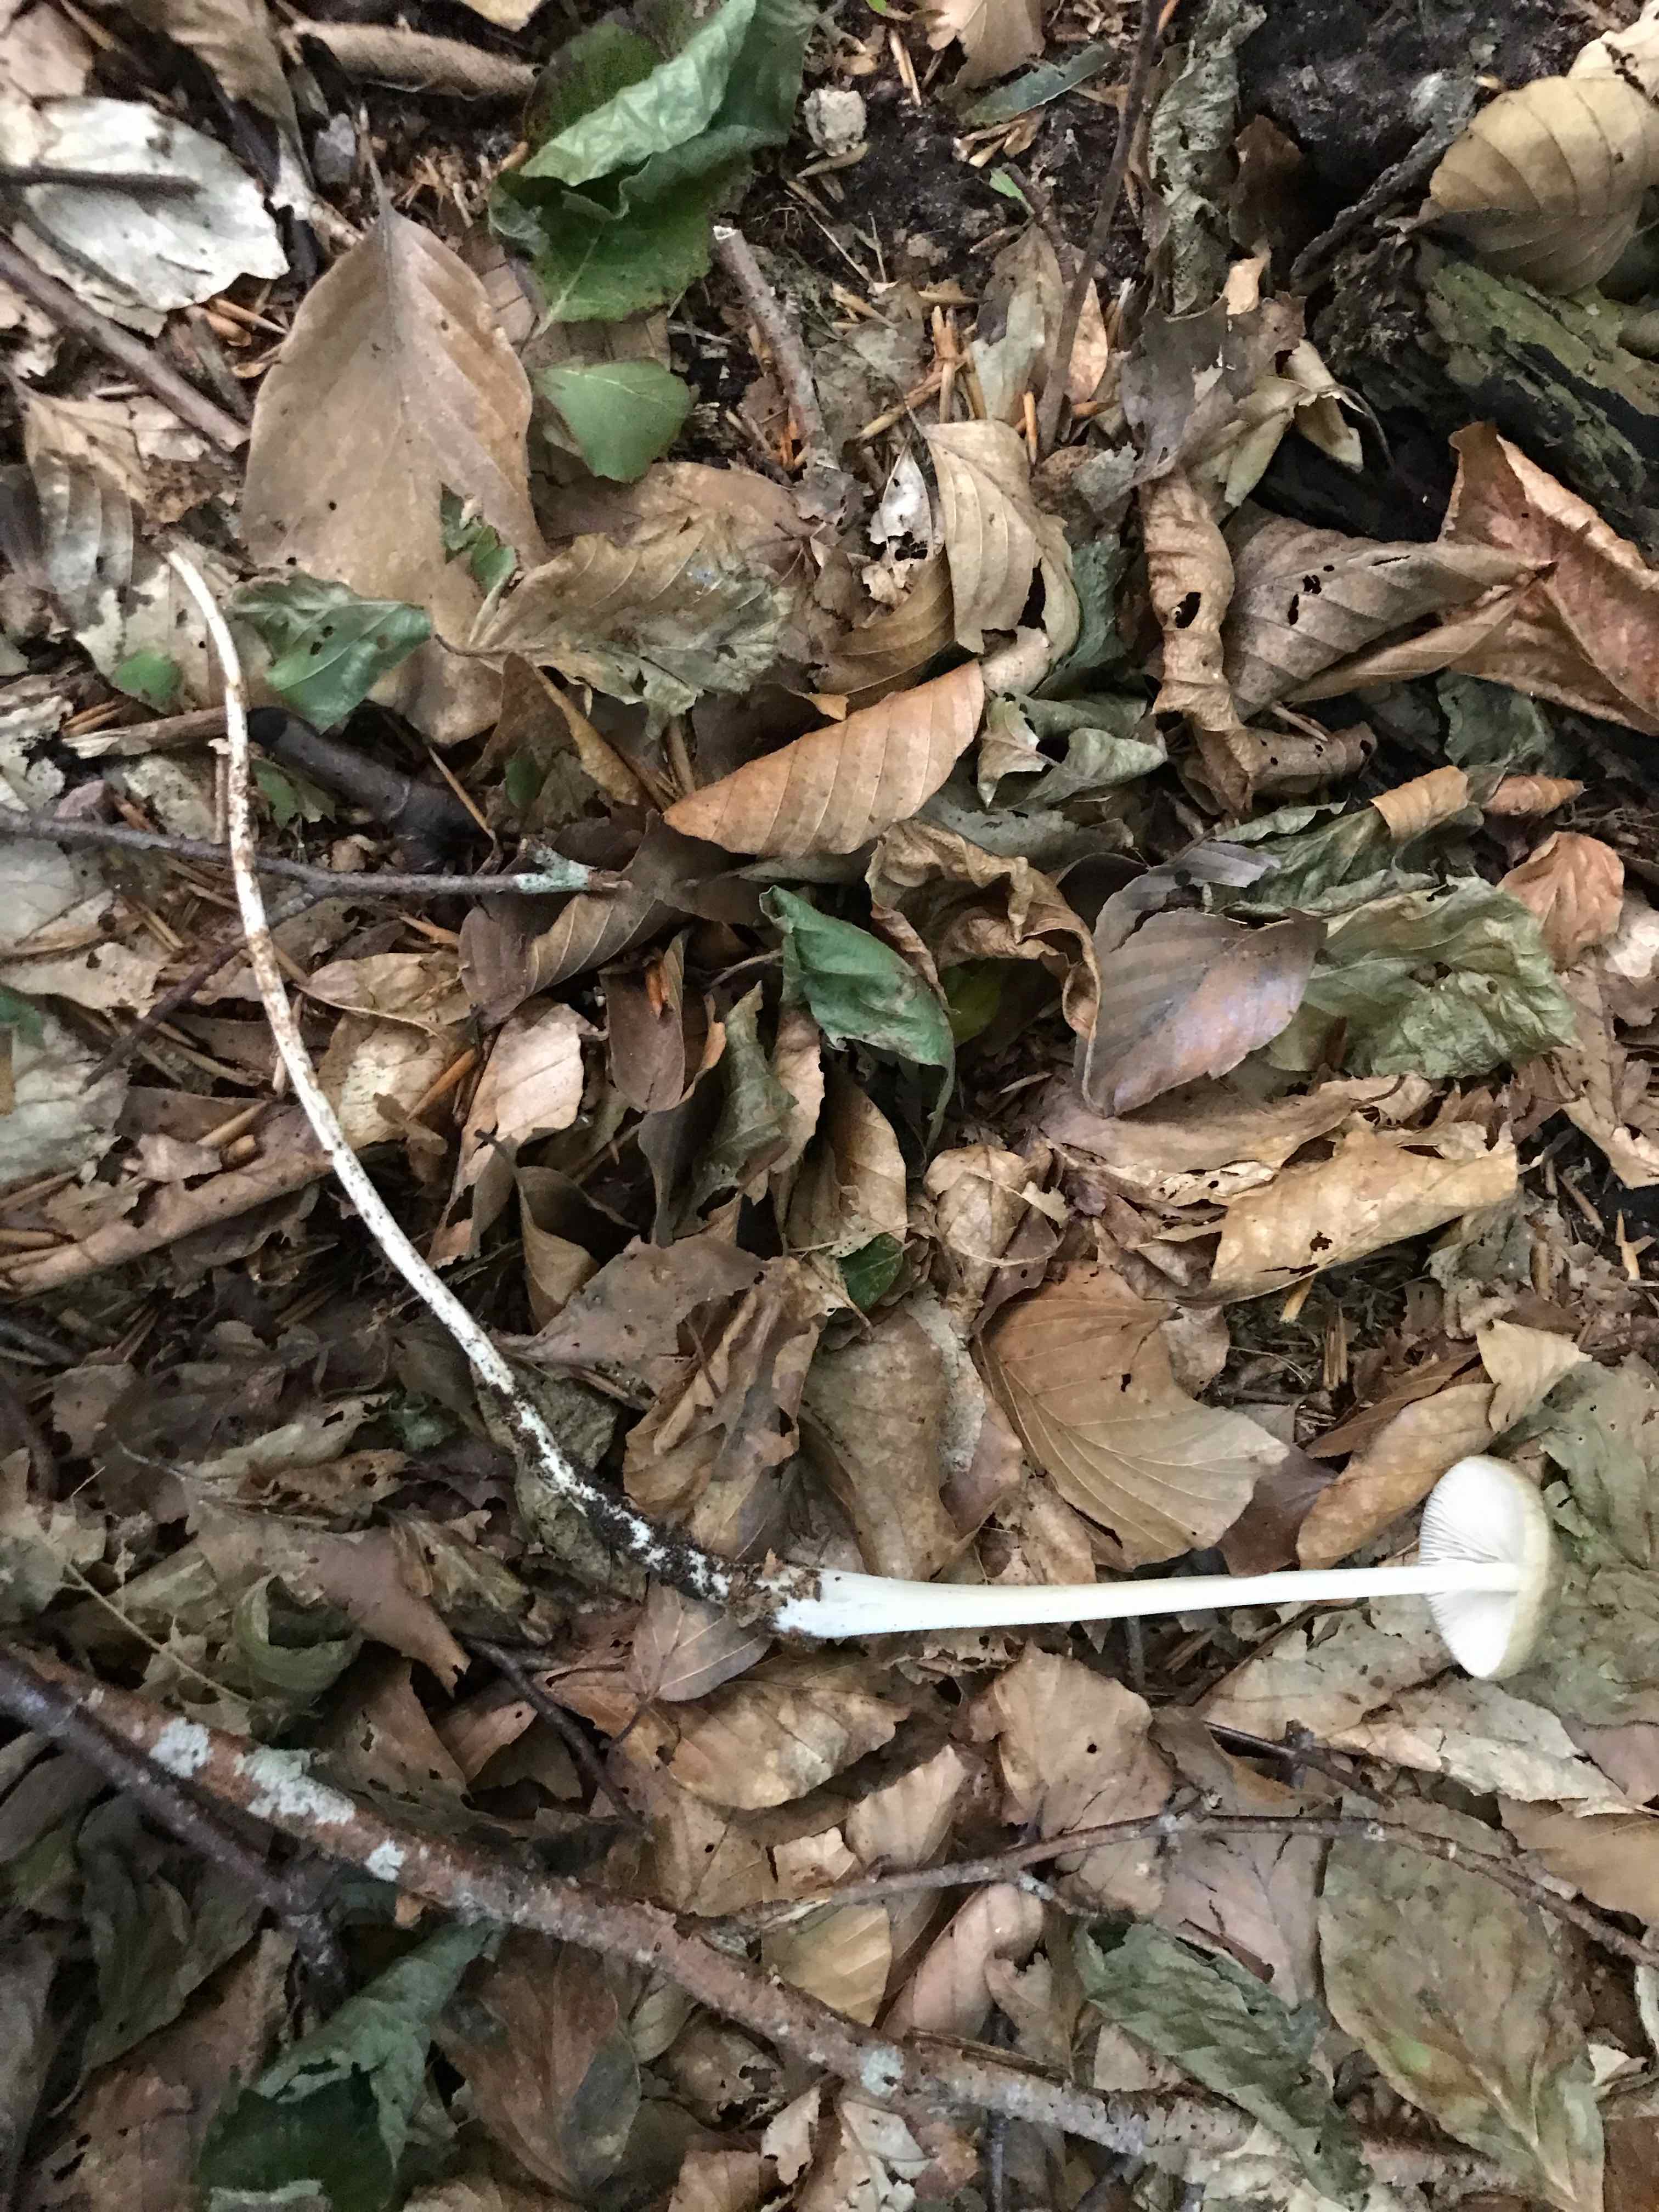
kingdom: Fungi
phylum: Basidiomycota
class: Agaricomycetes
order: Agaricales
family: Physalacriaceae
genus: Hymenopellis
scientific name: Hymenopellis radicata
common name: almindelig pælerodshat
